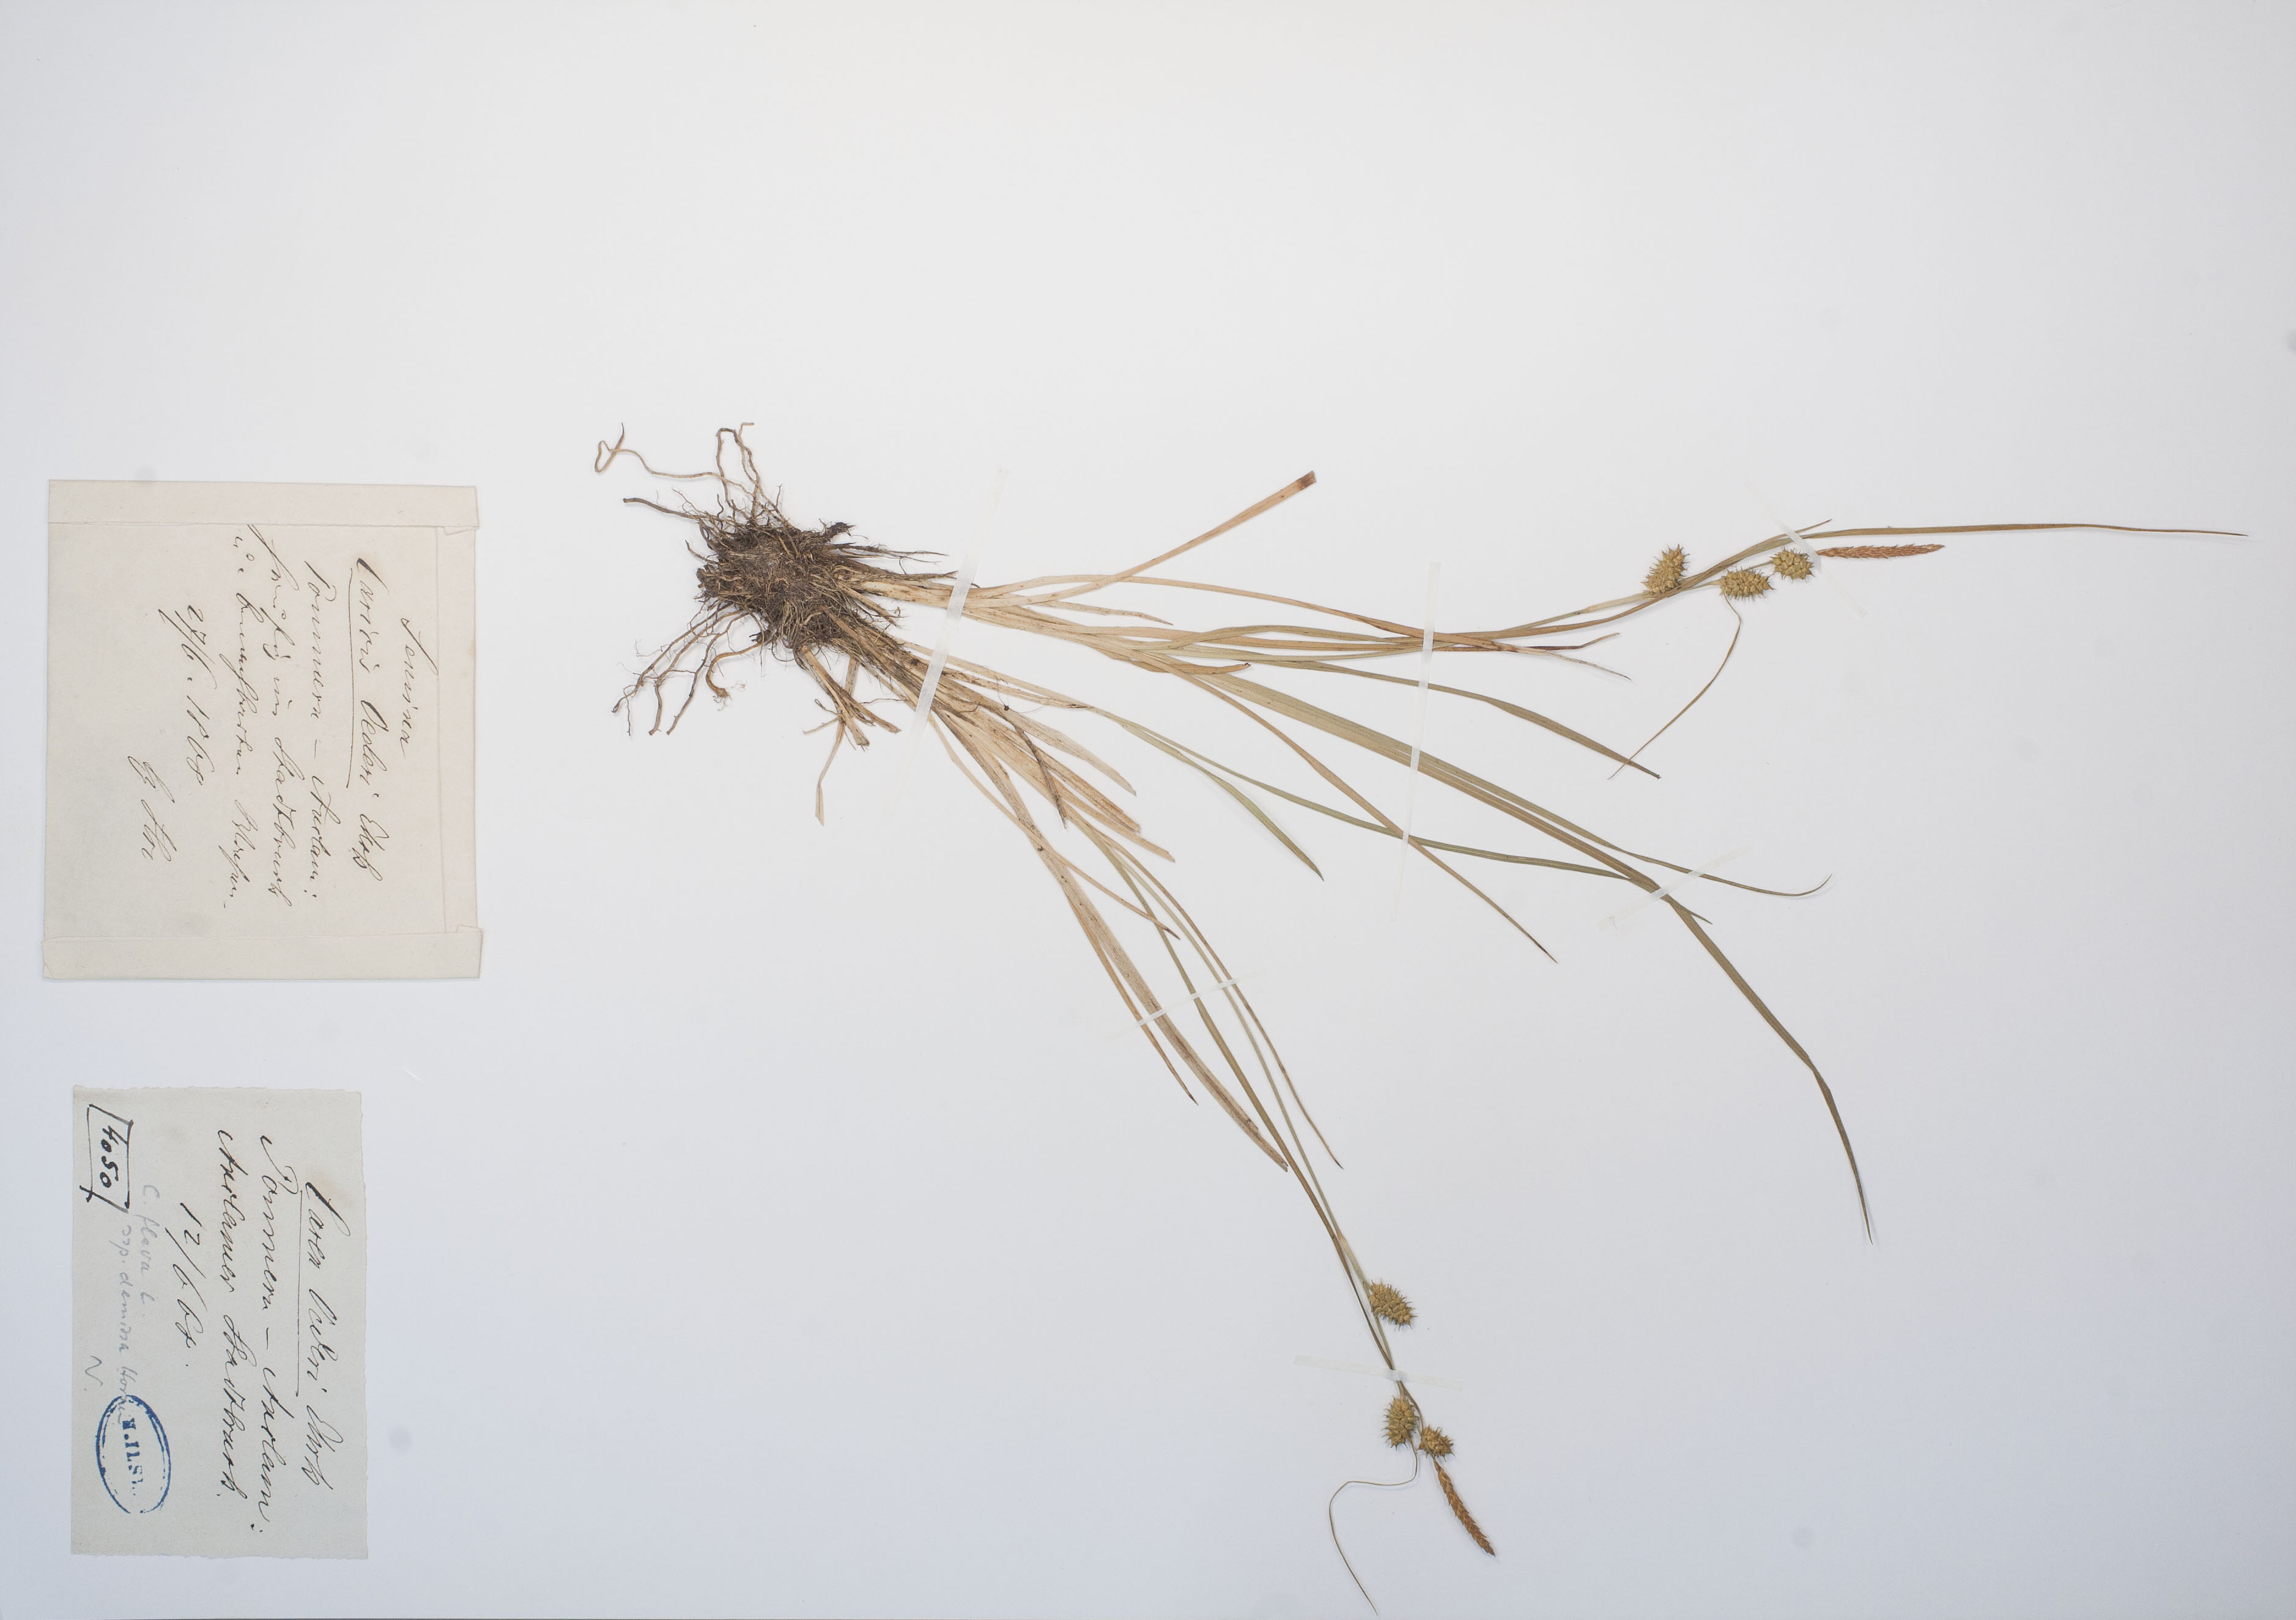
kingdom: Plantae
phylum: Tracheophyta
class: Liliopsida
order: Poales
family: Cyperaceae
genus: Carex
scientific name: Carex demissa
